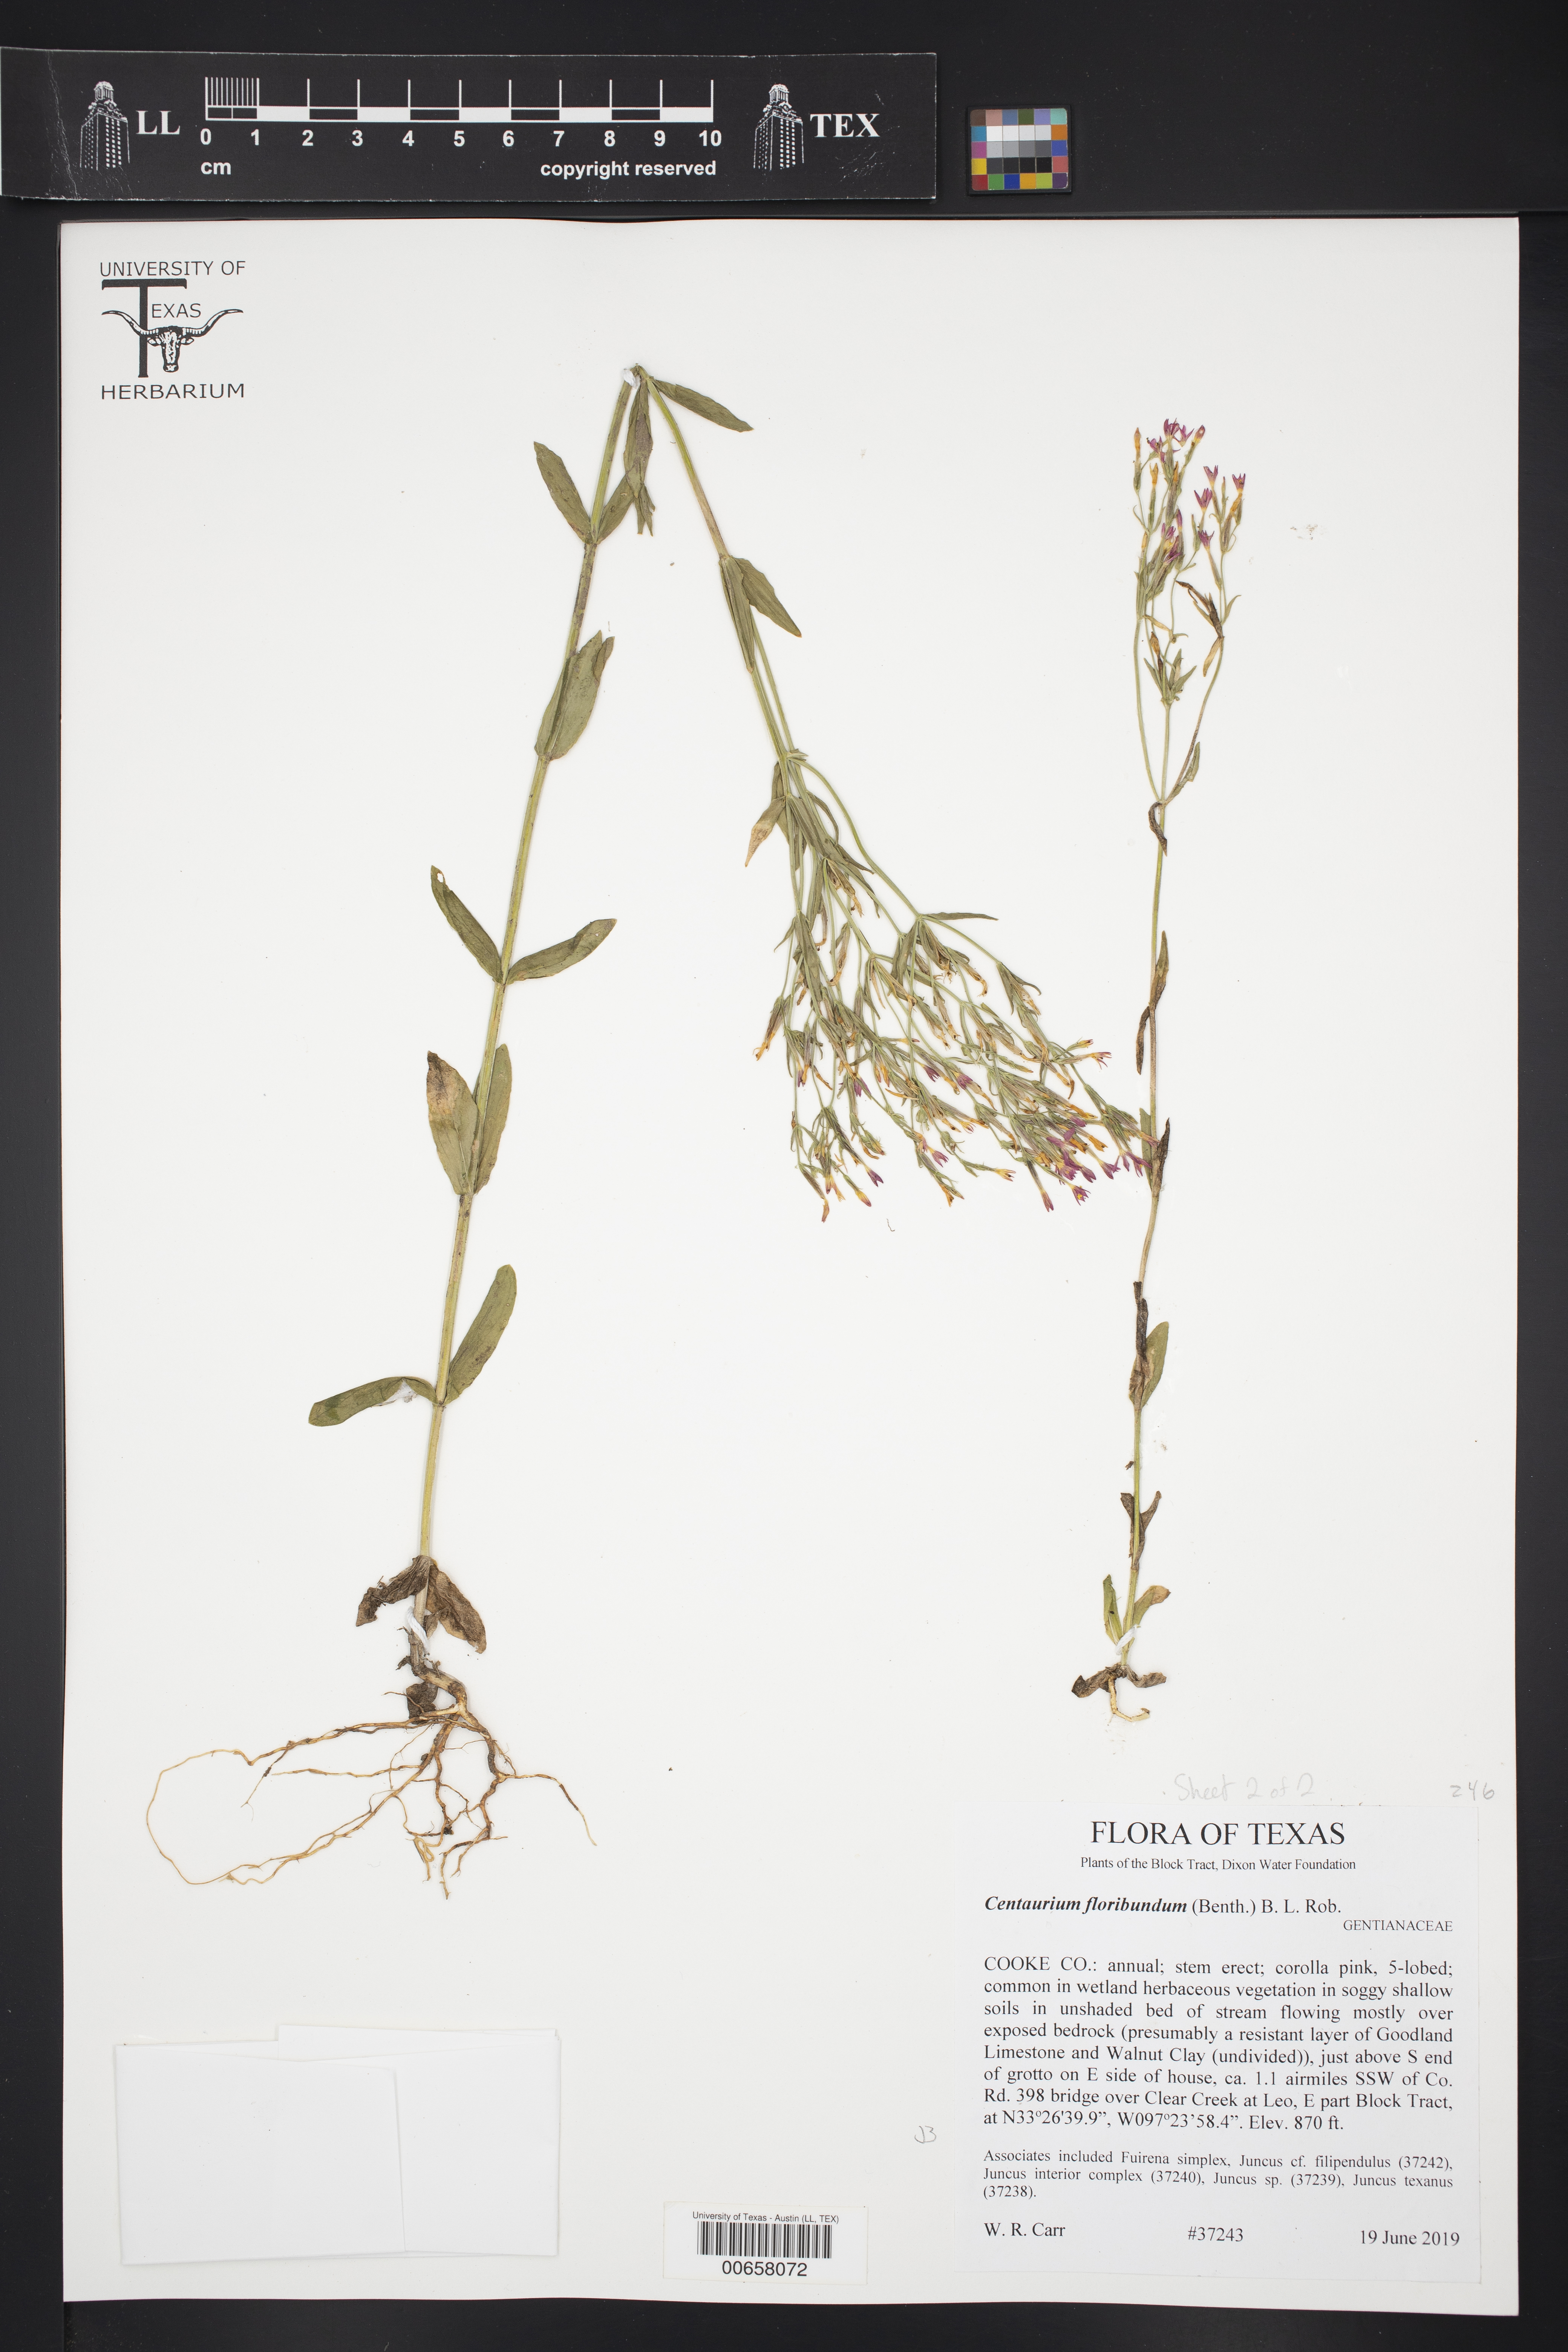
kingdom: Plantae
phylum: Tracheophyta
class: Magnoliopsida
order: Gentianales
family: Gentianaceae
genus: Zeltnera
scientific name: Zeltnera muhlenbergii
